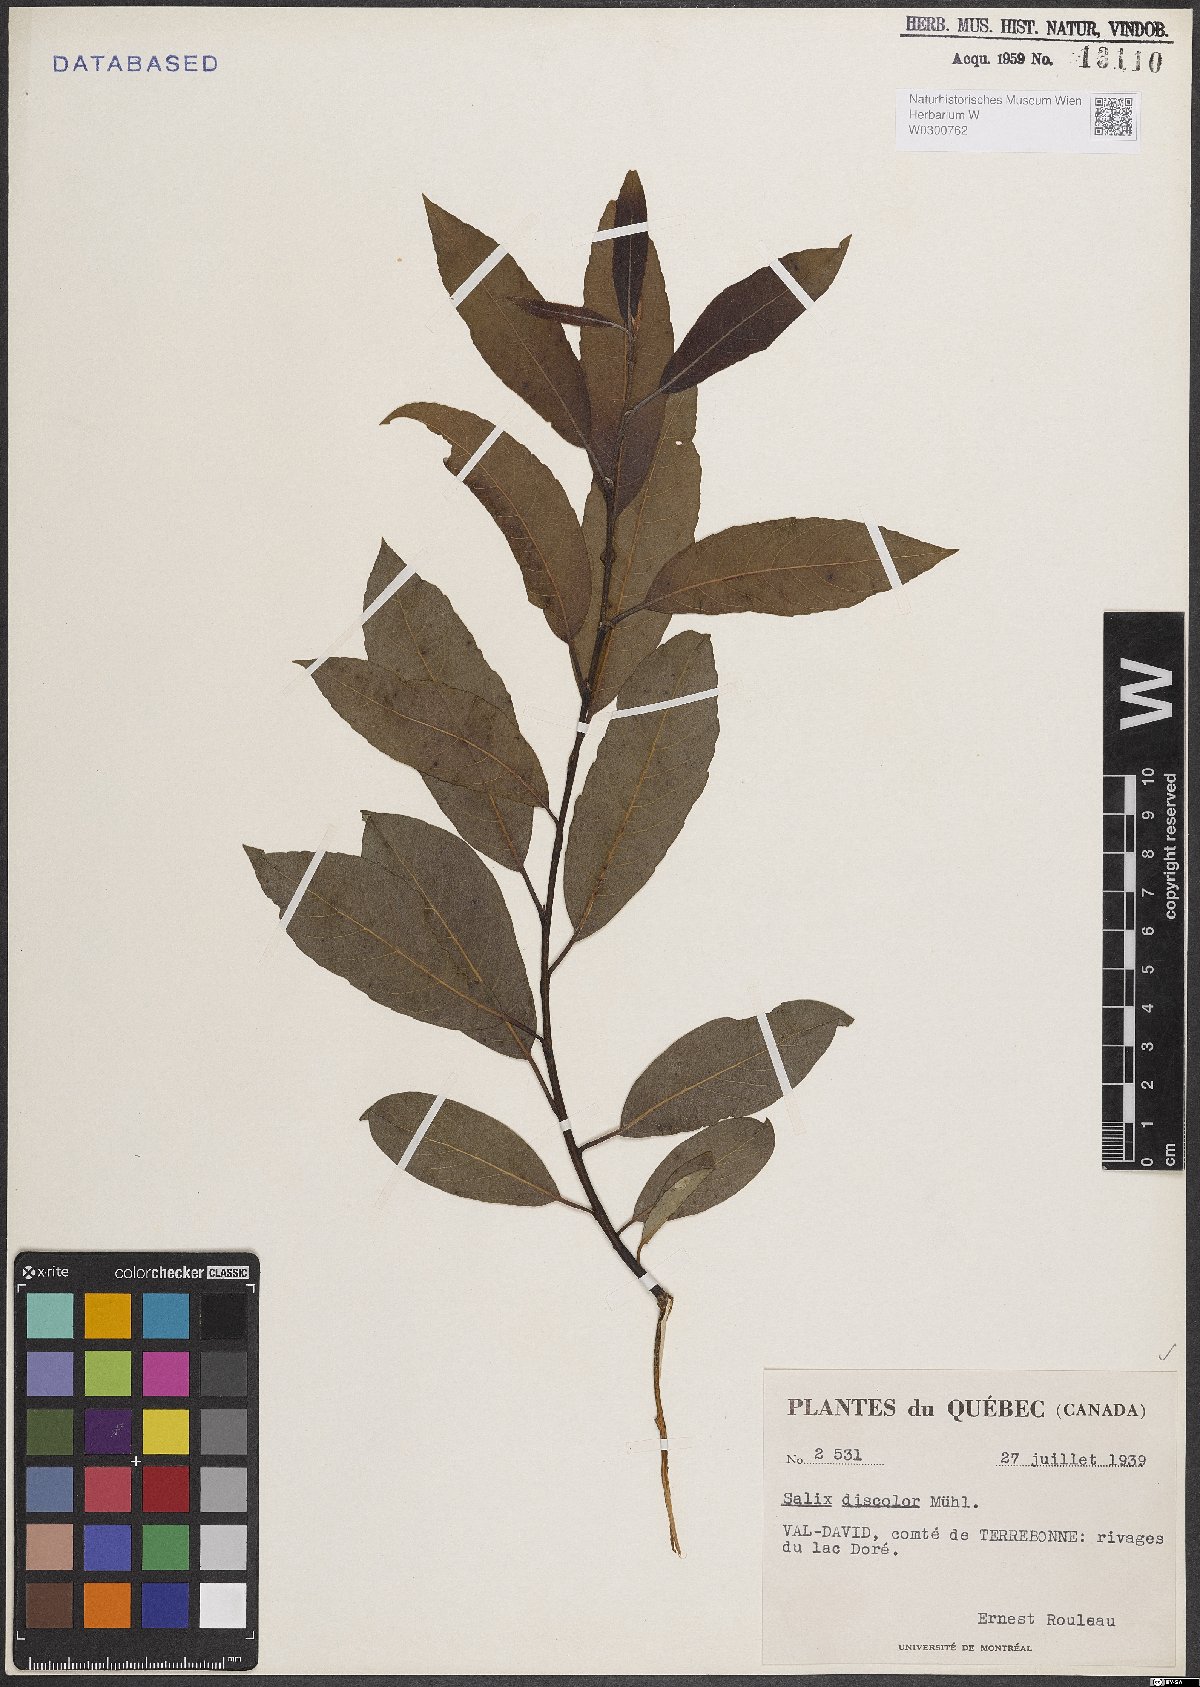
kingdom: Plantae
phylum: Tracheophyta
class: Magnoliopsida
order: Malpighiales
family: Salicaceae
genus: Salix
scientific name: Salix discolor
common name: Glaucous willow
